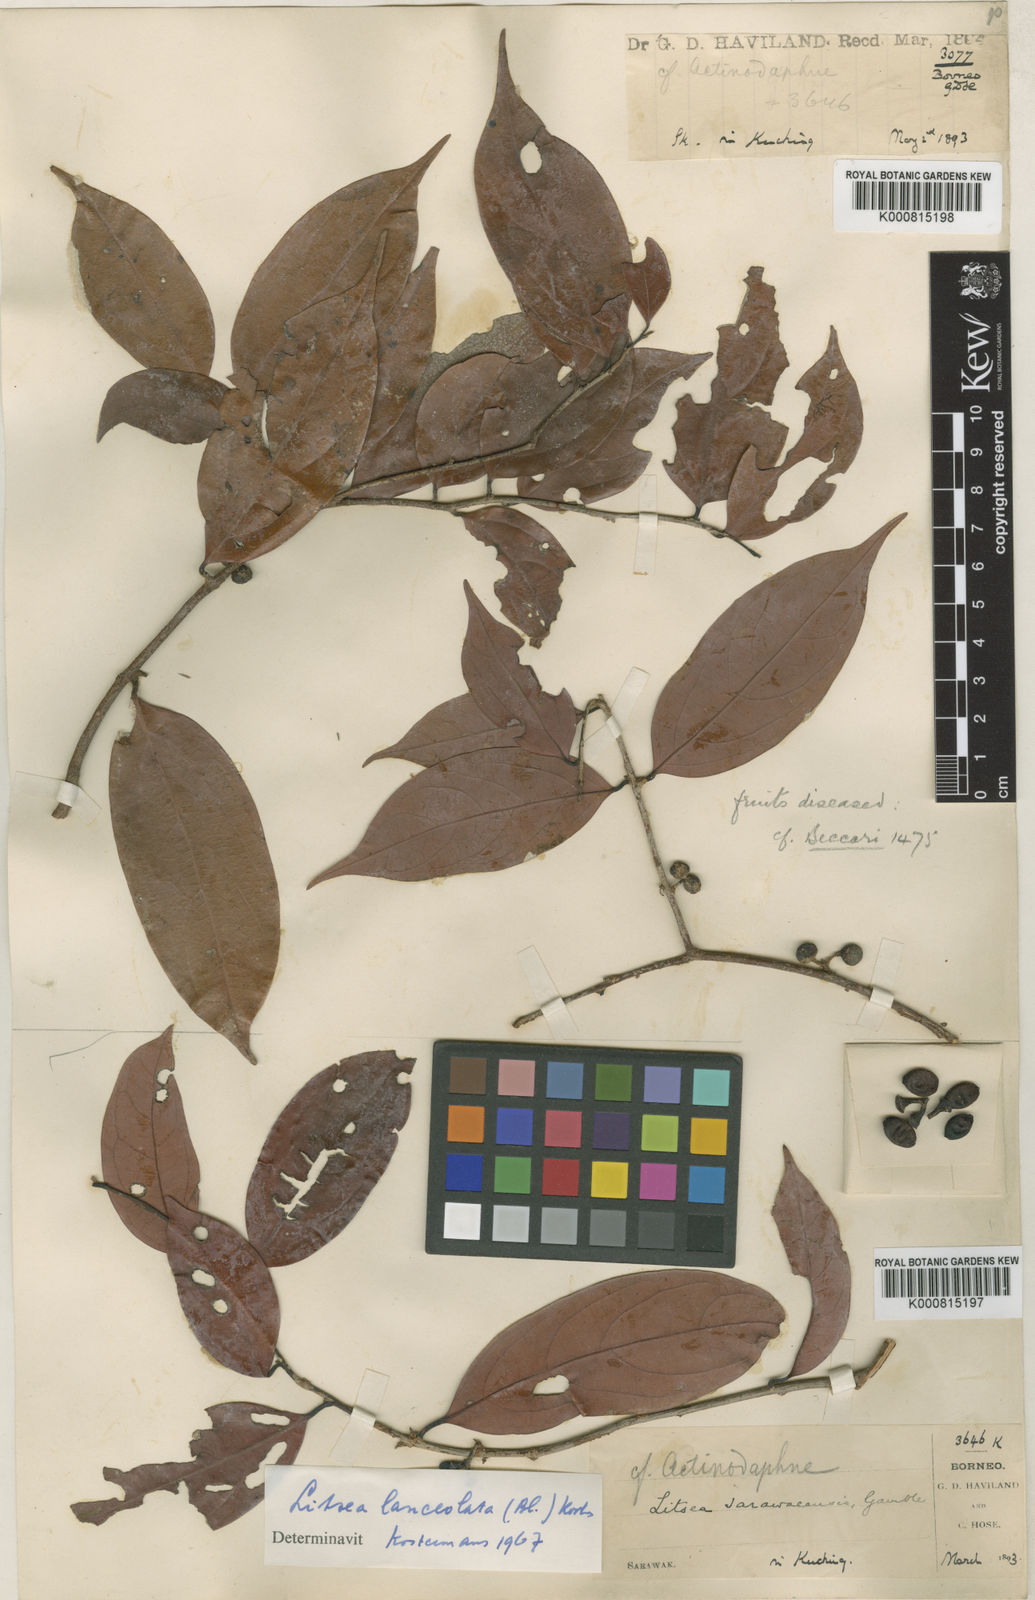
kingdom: Plantae
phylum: Tracheophyta
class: Magnoliopsida
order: Laurales
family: Lauraceae
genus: Litsea
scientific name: Litsea lanceolata
